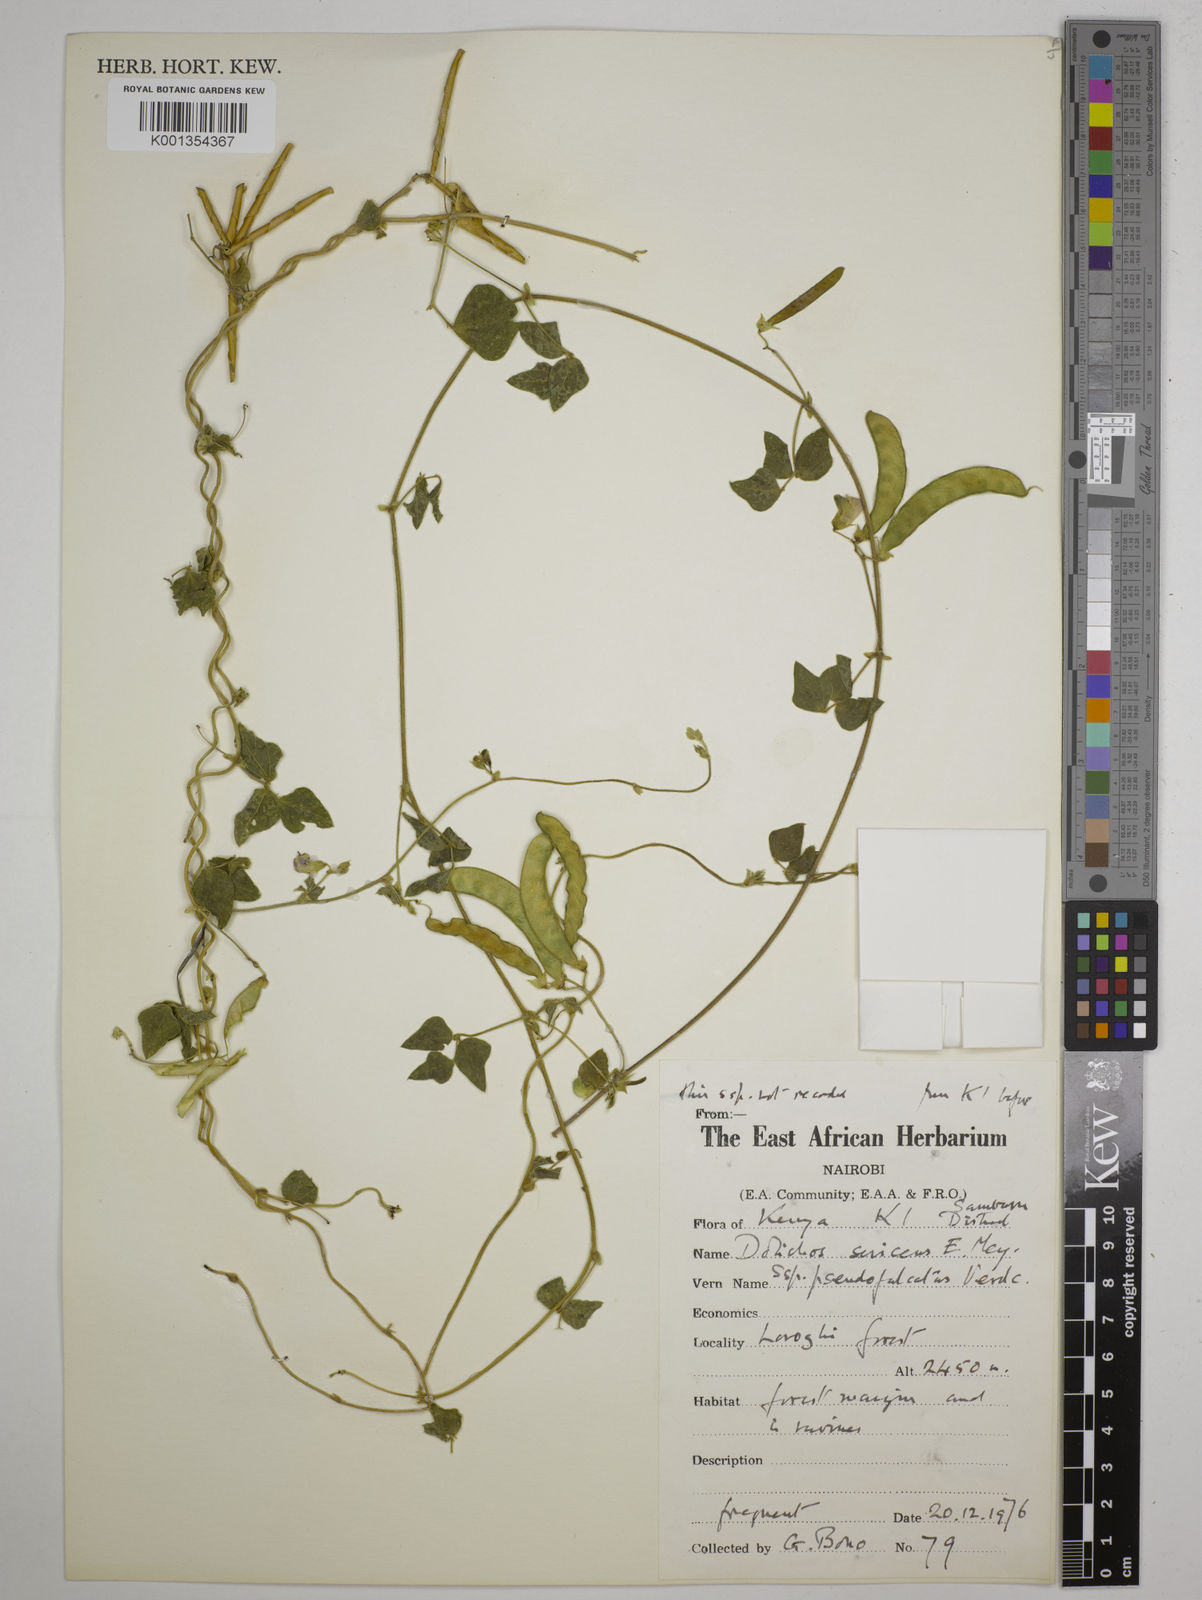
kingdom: Plantae
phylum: Tracheophyta
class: Magnoliopsida
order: Fabales
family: Fabaceae
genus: Dolichos
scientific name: Dolichos
